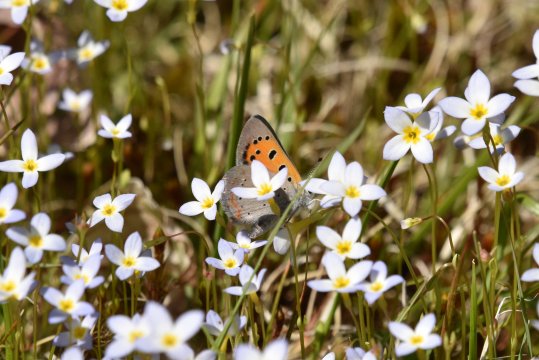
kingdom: Animalia
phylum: Arthropoda
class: Insecta
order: Lepidoptera
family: Lycaenidae
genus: Lycaena
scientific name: Lycaena phlaeas
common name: American Copper
